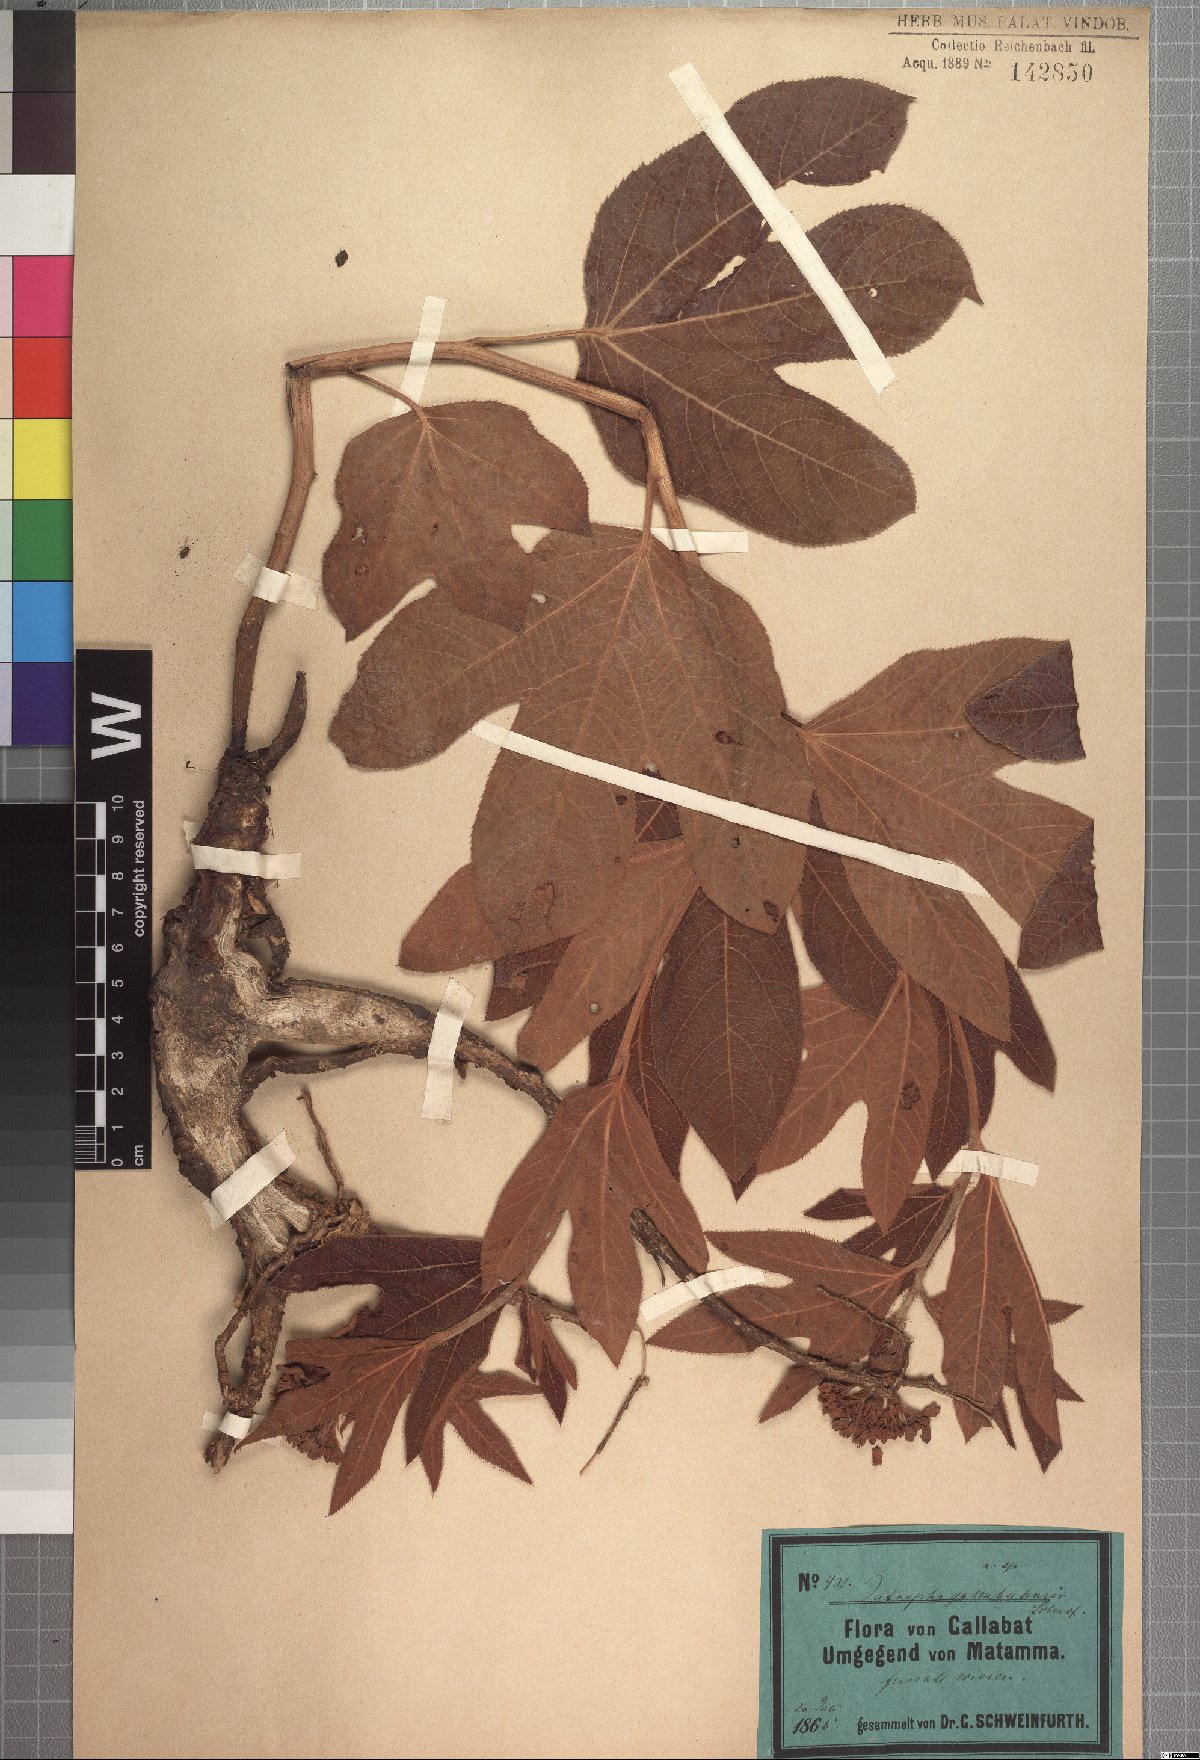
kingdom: Plantae
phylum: Tracheophyta
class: Magnoliopsida
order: Malpighiales
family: Euphorbiaceae
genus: Jatropha
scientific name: Jatropha gallabatensis
